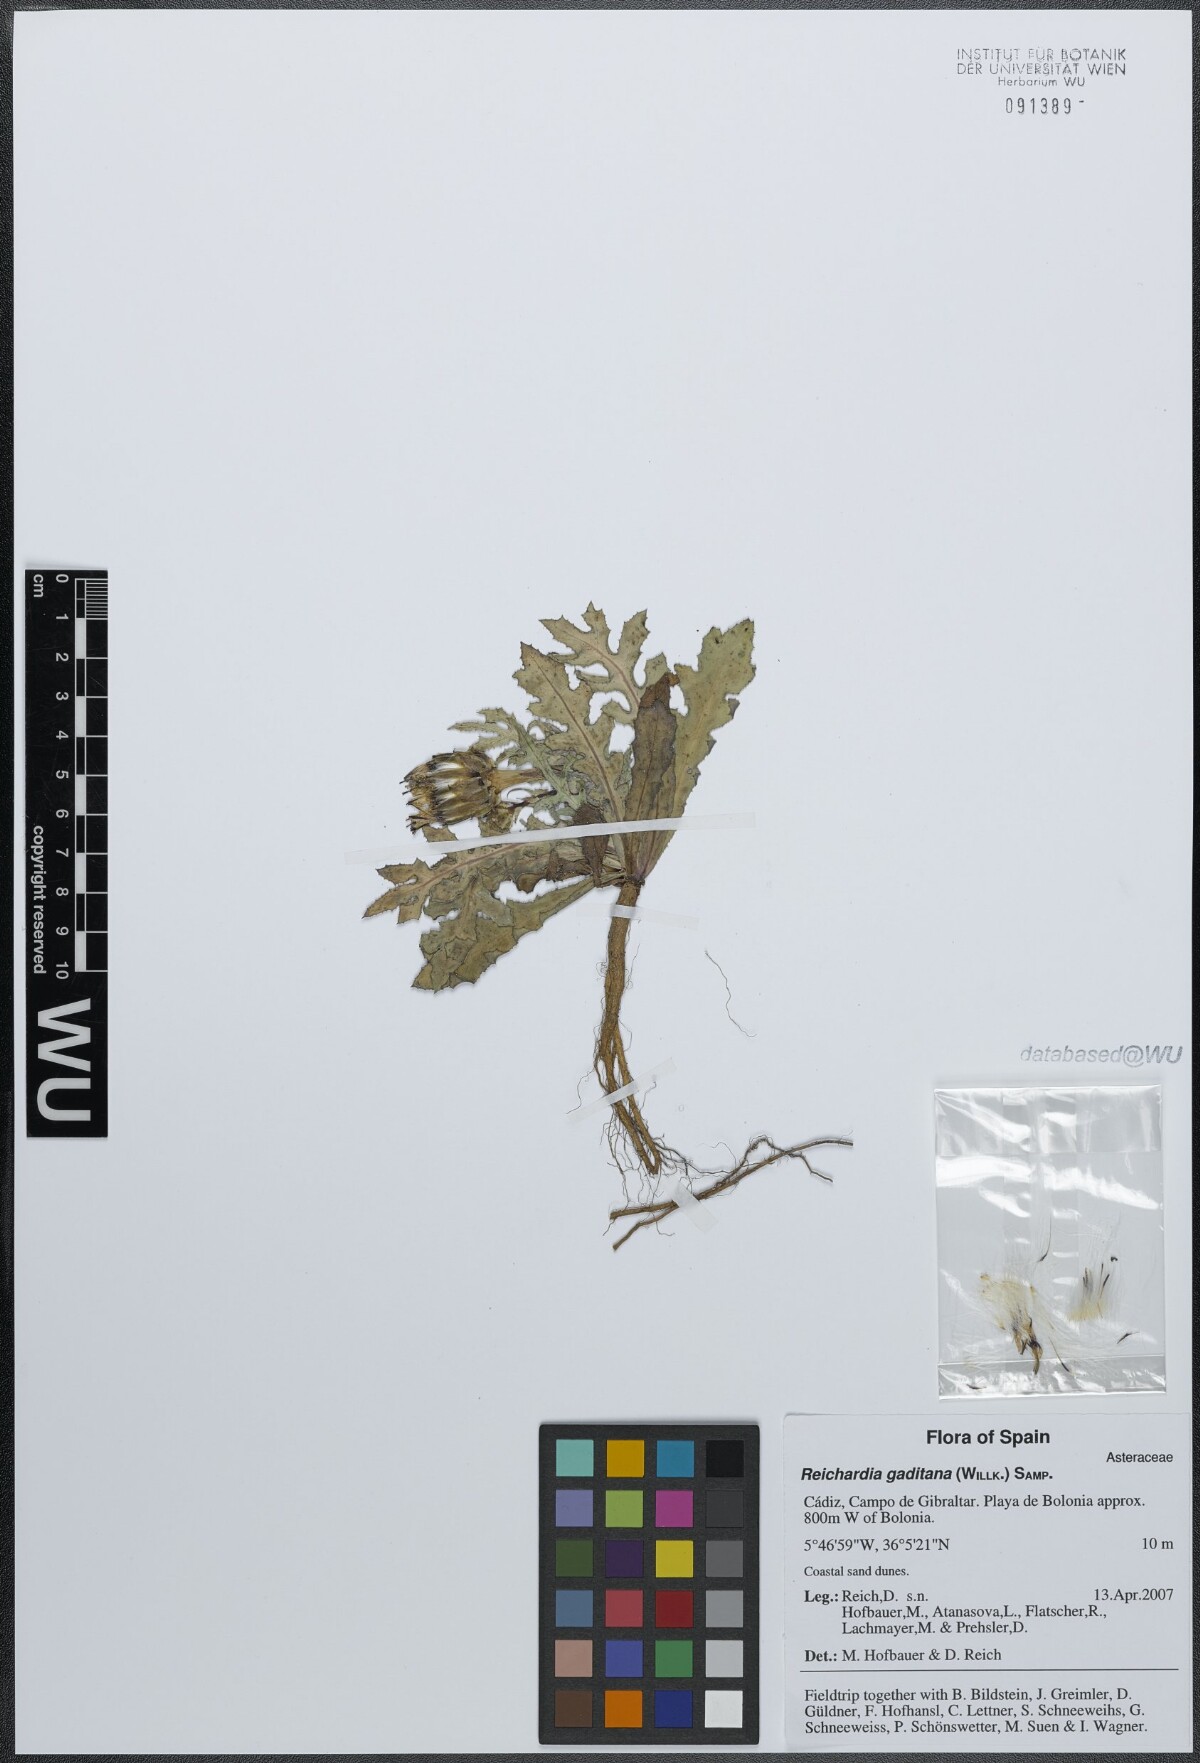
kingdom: Plantae
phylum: Tracheophyta
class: Magnoliopsida
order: Asterales
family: Asteraceae
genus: Reichardia
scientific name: Reichardia gaditana
